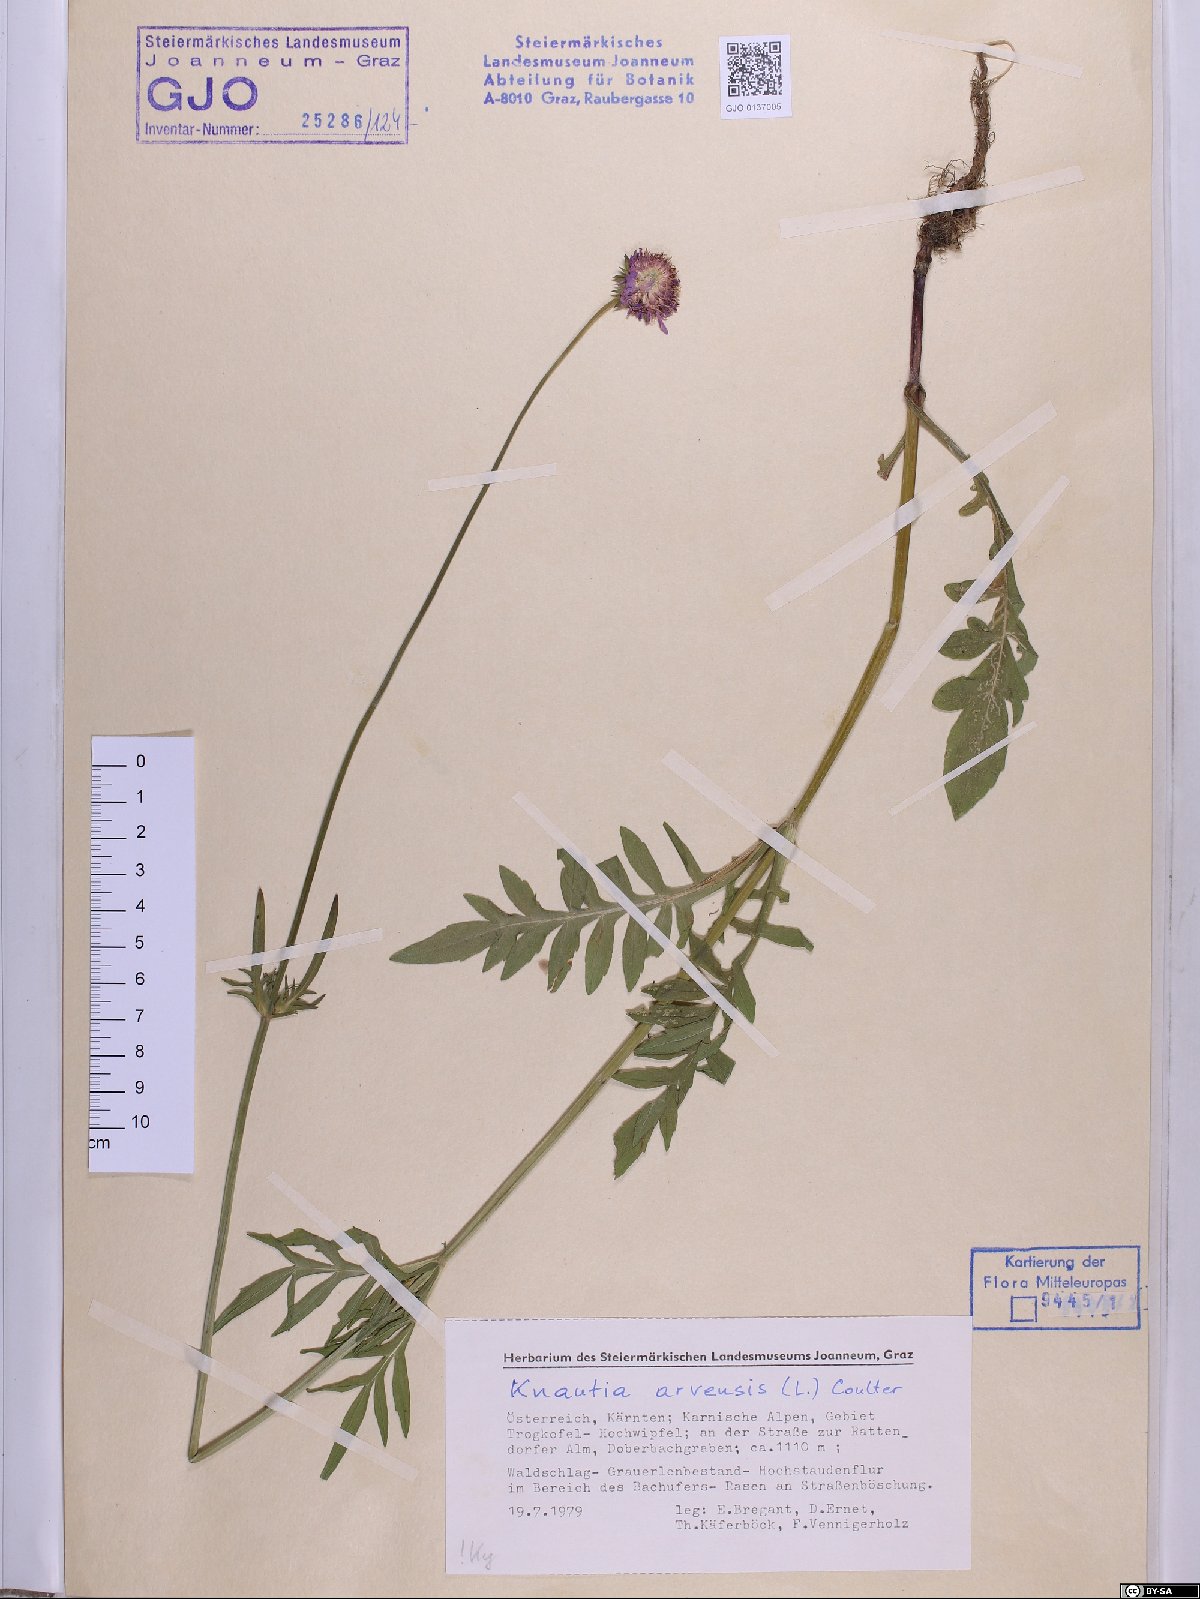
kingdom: Plantae
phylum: Tracheophyta
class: Magnoliopsida
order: Dipsacales
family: Caprifoliaceae
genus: Knautia
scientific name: Knautia arvensis
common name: Field scabiosa
